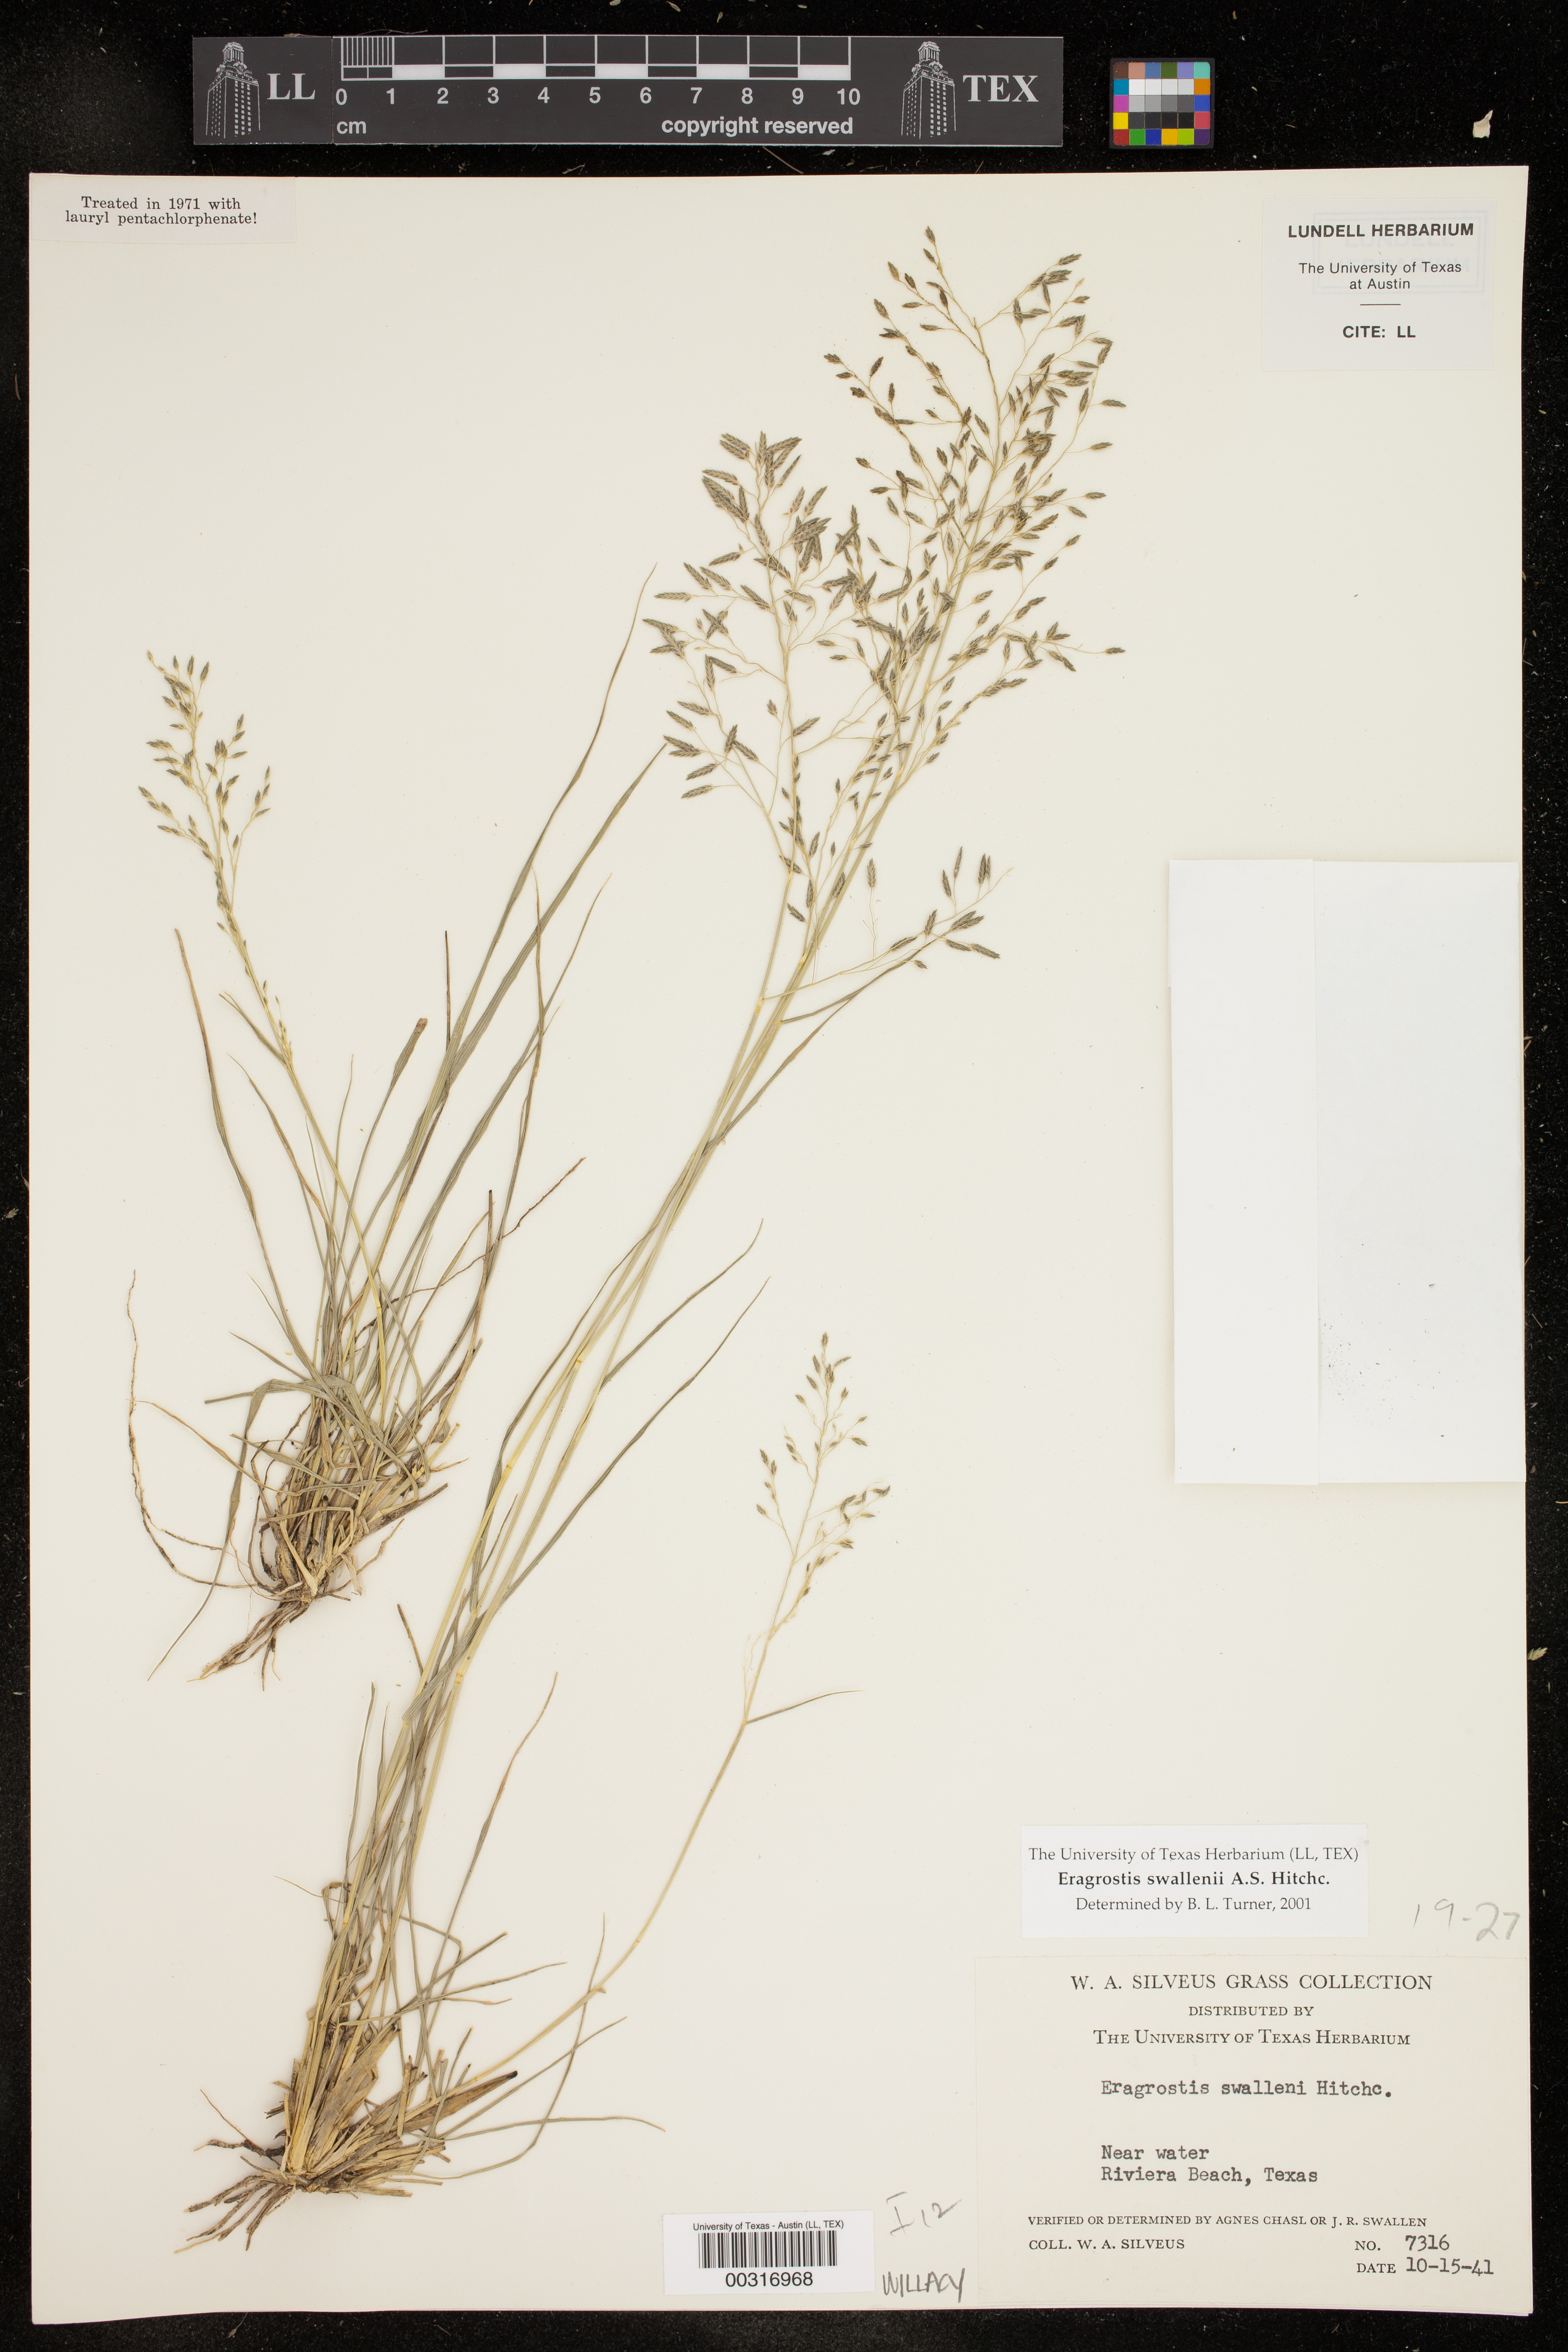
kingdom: Plantae
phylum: Tracheophyta
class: Liliopsida
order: Poales
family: Poaceae
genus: Eragrostis
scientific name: Eragrostis swallenii
